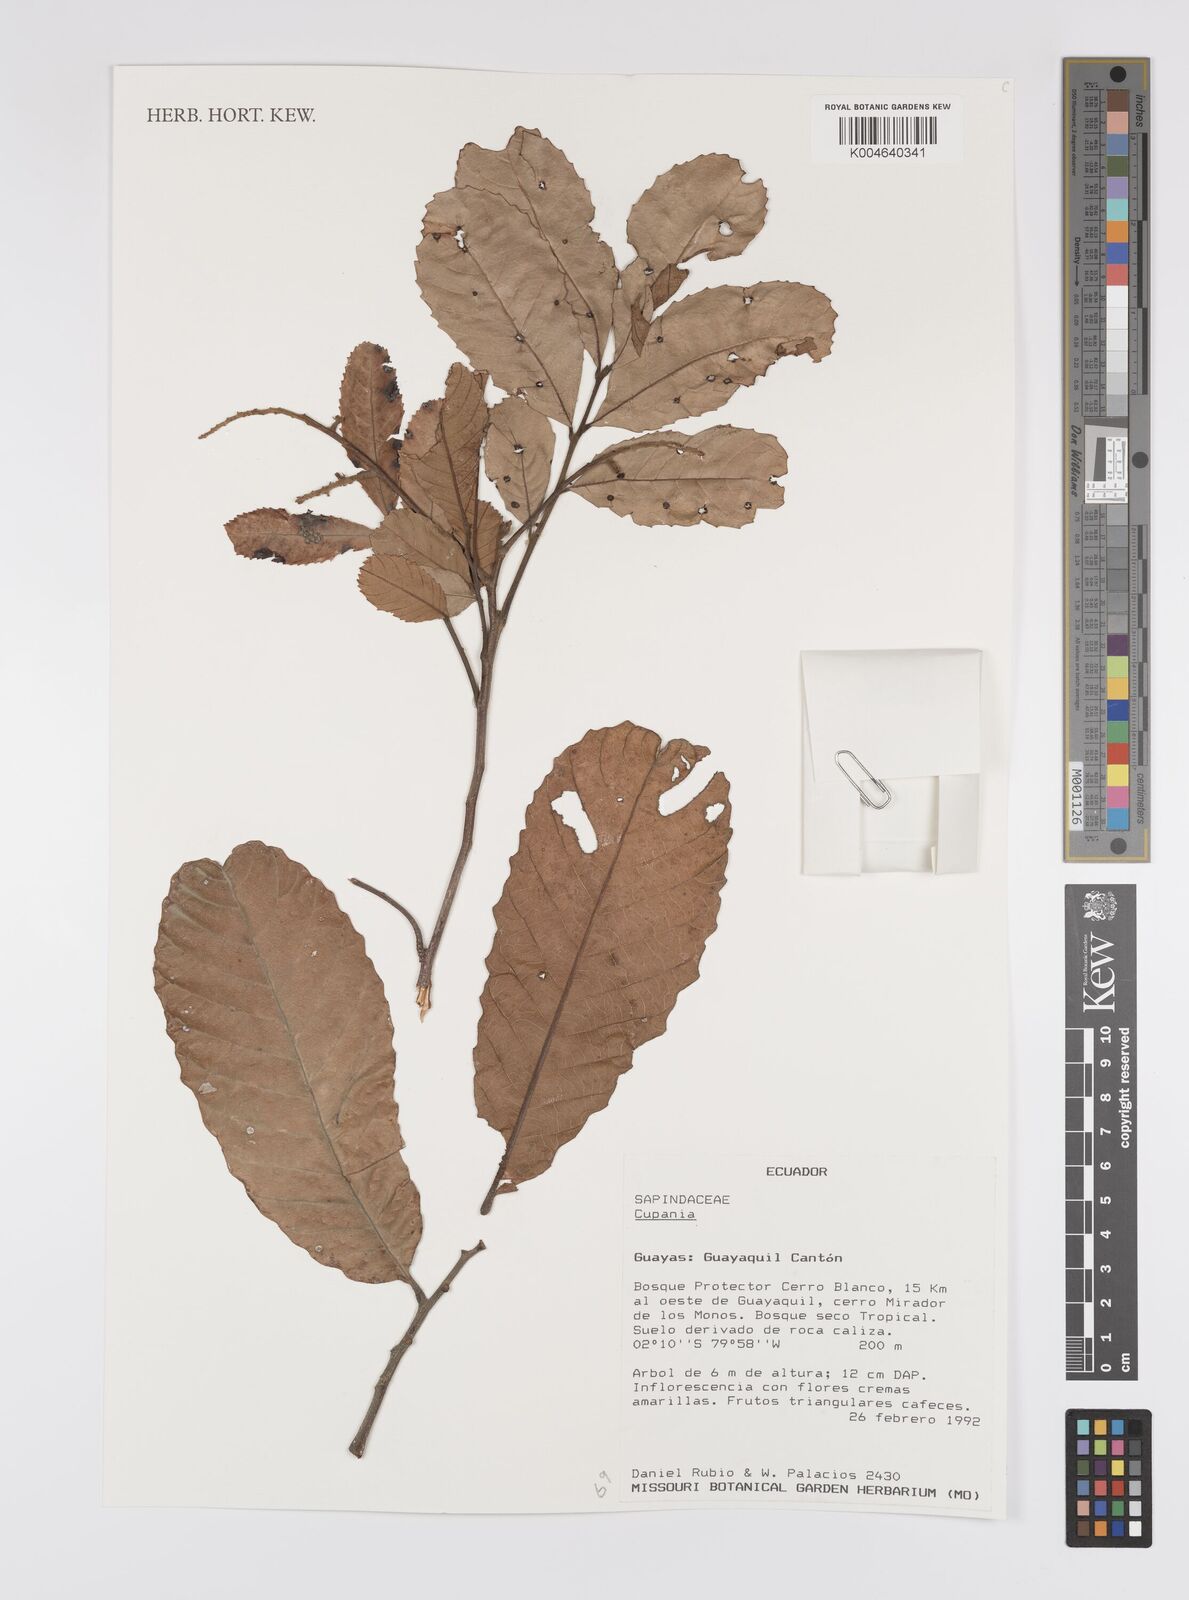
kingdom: Plantae
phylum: Tracheophyta
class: Magnoliopsida
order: Sapindales
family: Sapindaceae
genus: Cupania
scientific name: Cupania
